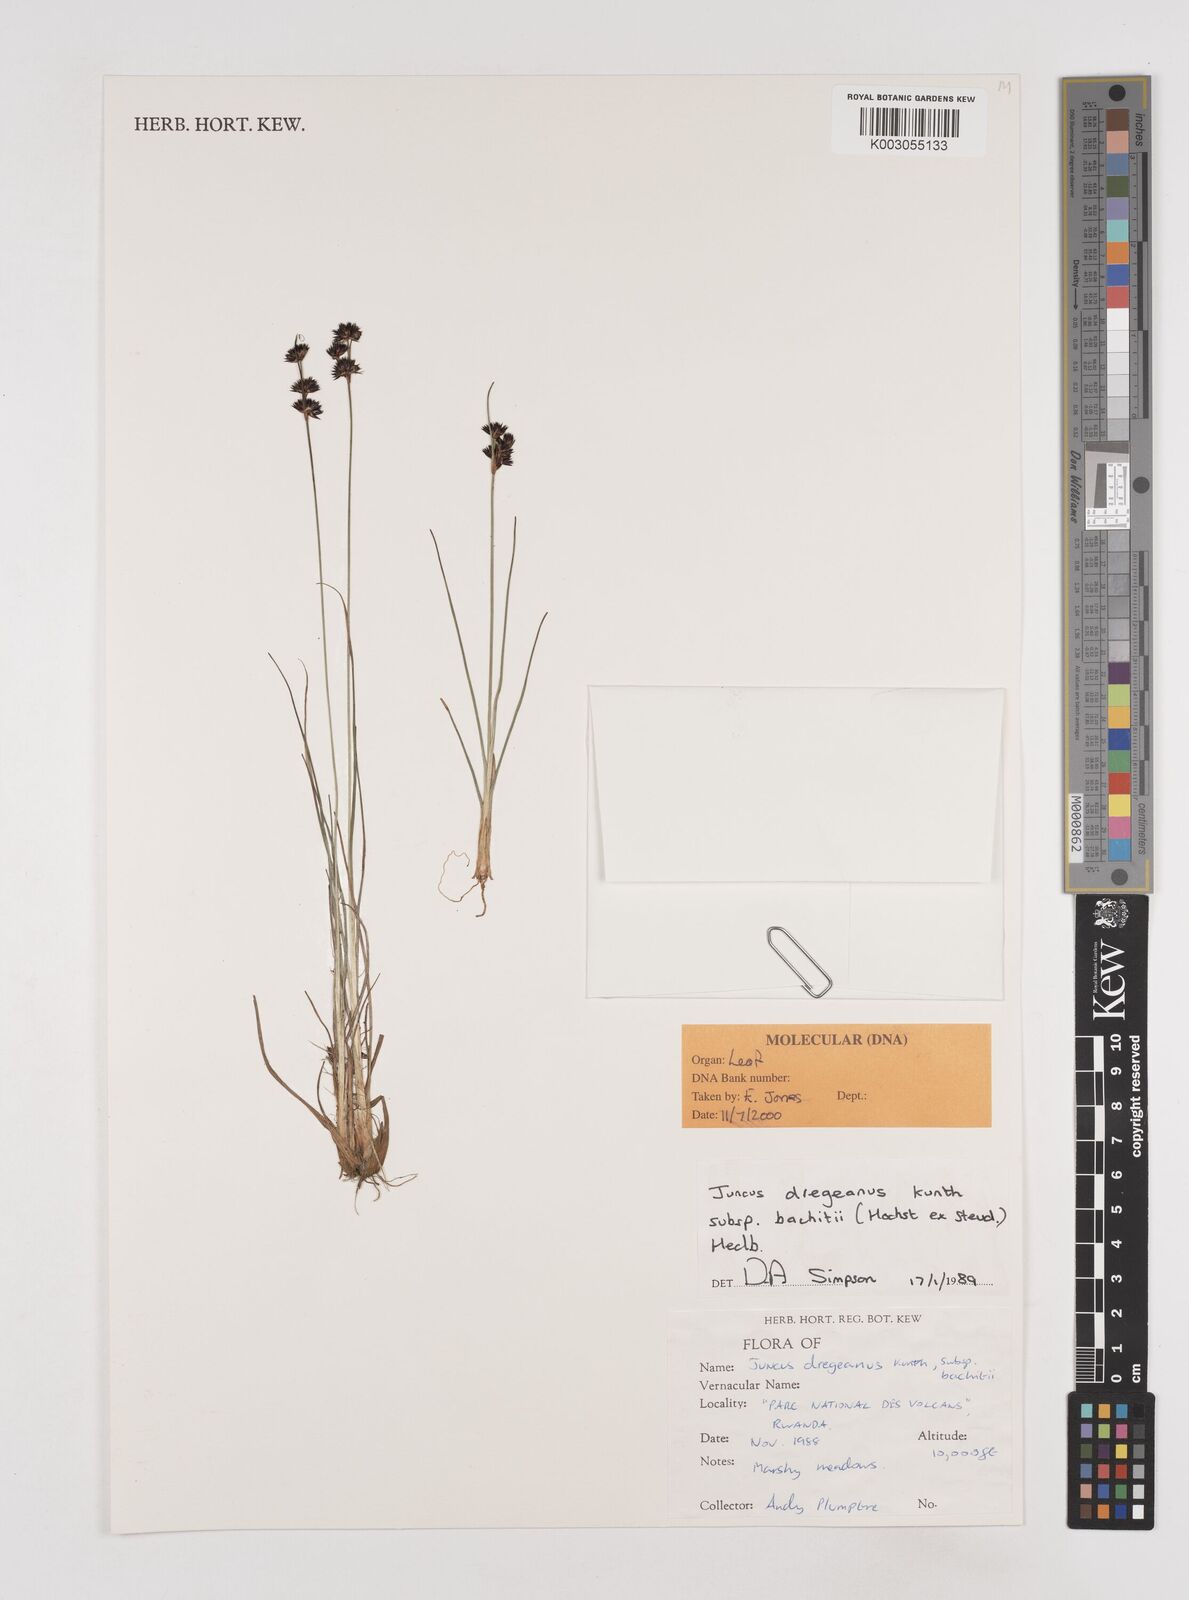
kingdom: Plantae
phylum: Tracheophyta
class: Liliopsida
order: Poales
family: Juncaceae
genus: Juncus
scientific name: Juncus dregeanus
